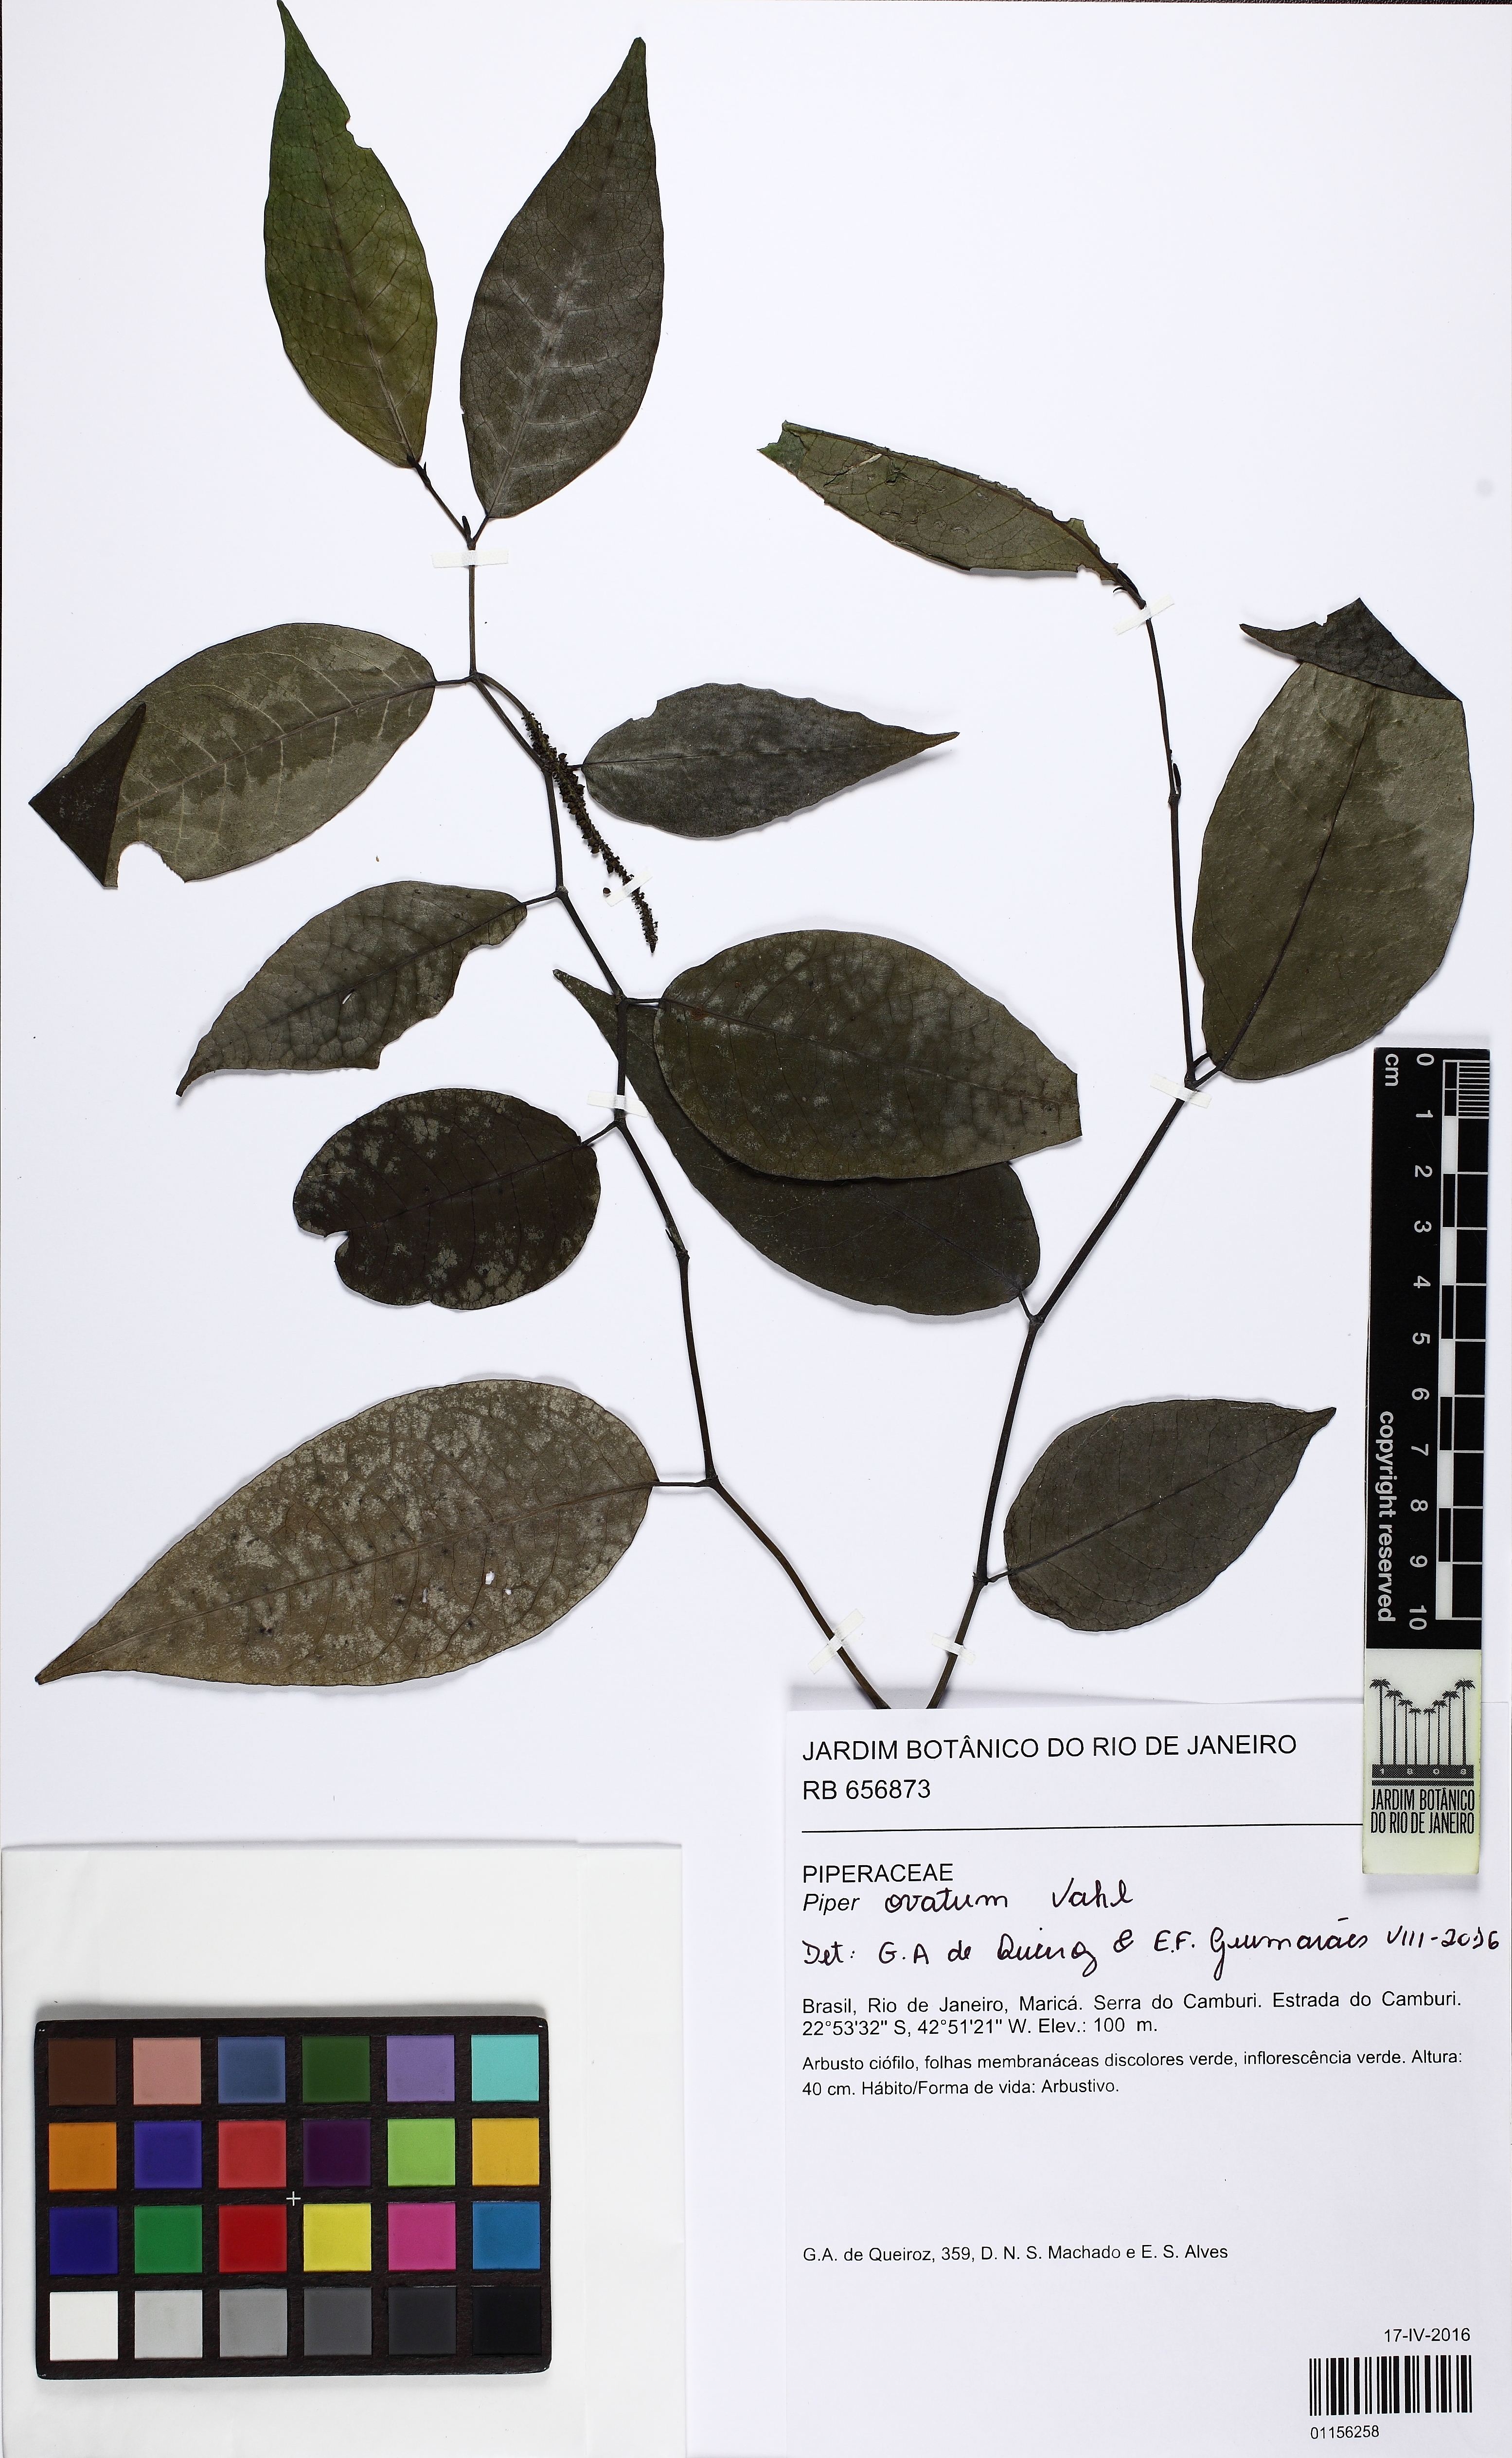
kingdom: Plantae
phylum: Tracheophyta
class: Magnoliopsida
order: Piperales
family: Piperaceae
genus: Piper
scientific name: Piper ovatum
